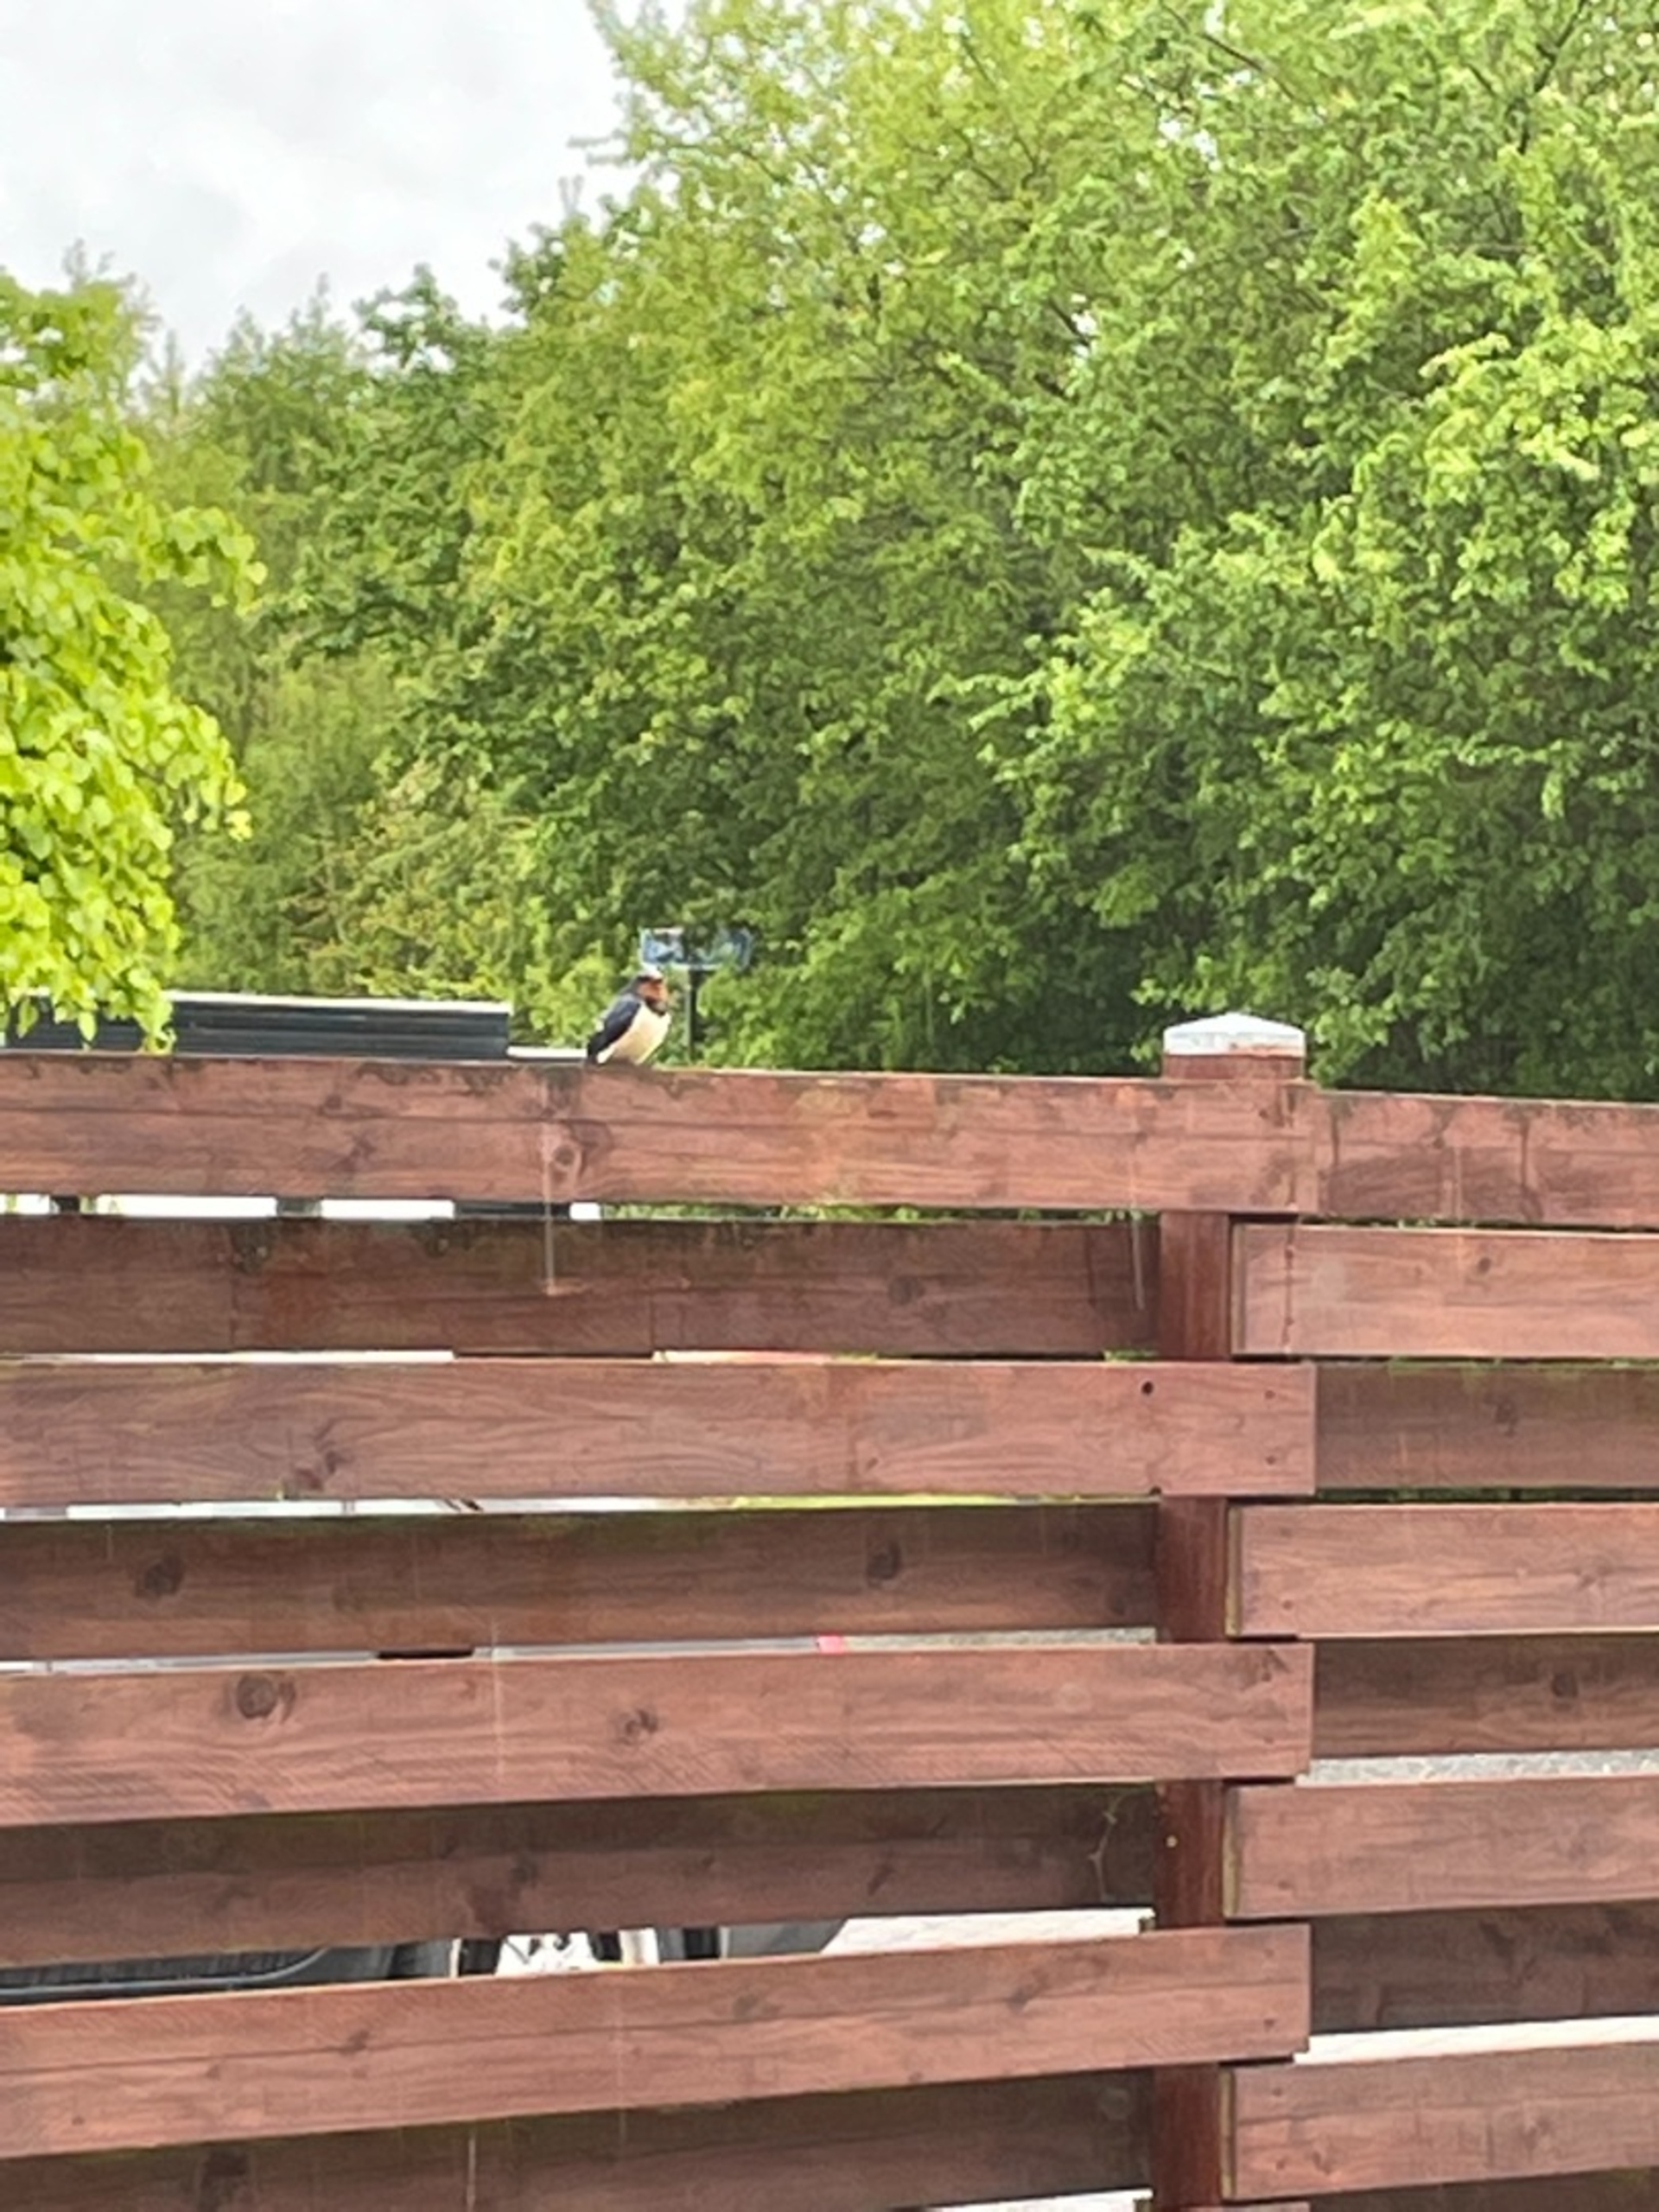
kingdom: Animalia
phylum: Chordata
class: Aves
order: Passeriformes
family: Hirundinidae
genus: Hirundo
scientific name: Hirundo rustica
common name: Landsvale
